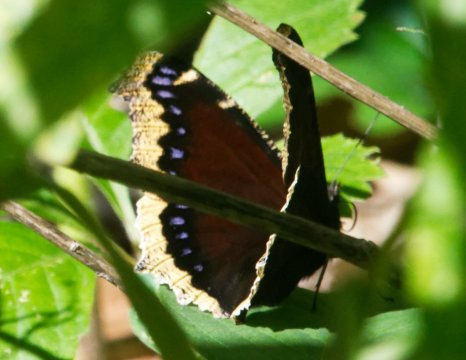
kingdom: Animalia
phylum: Arthropoda
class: Insecta
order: Lepidoptera
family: Nymphalidae
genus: Nymphalis
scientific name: Nymphalis antiopa
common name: Mourning Cloak
